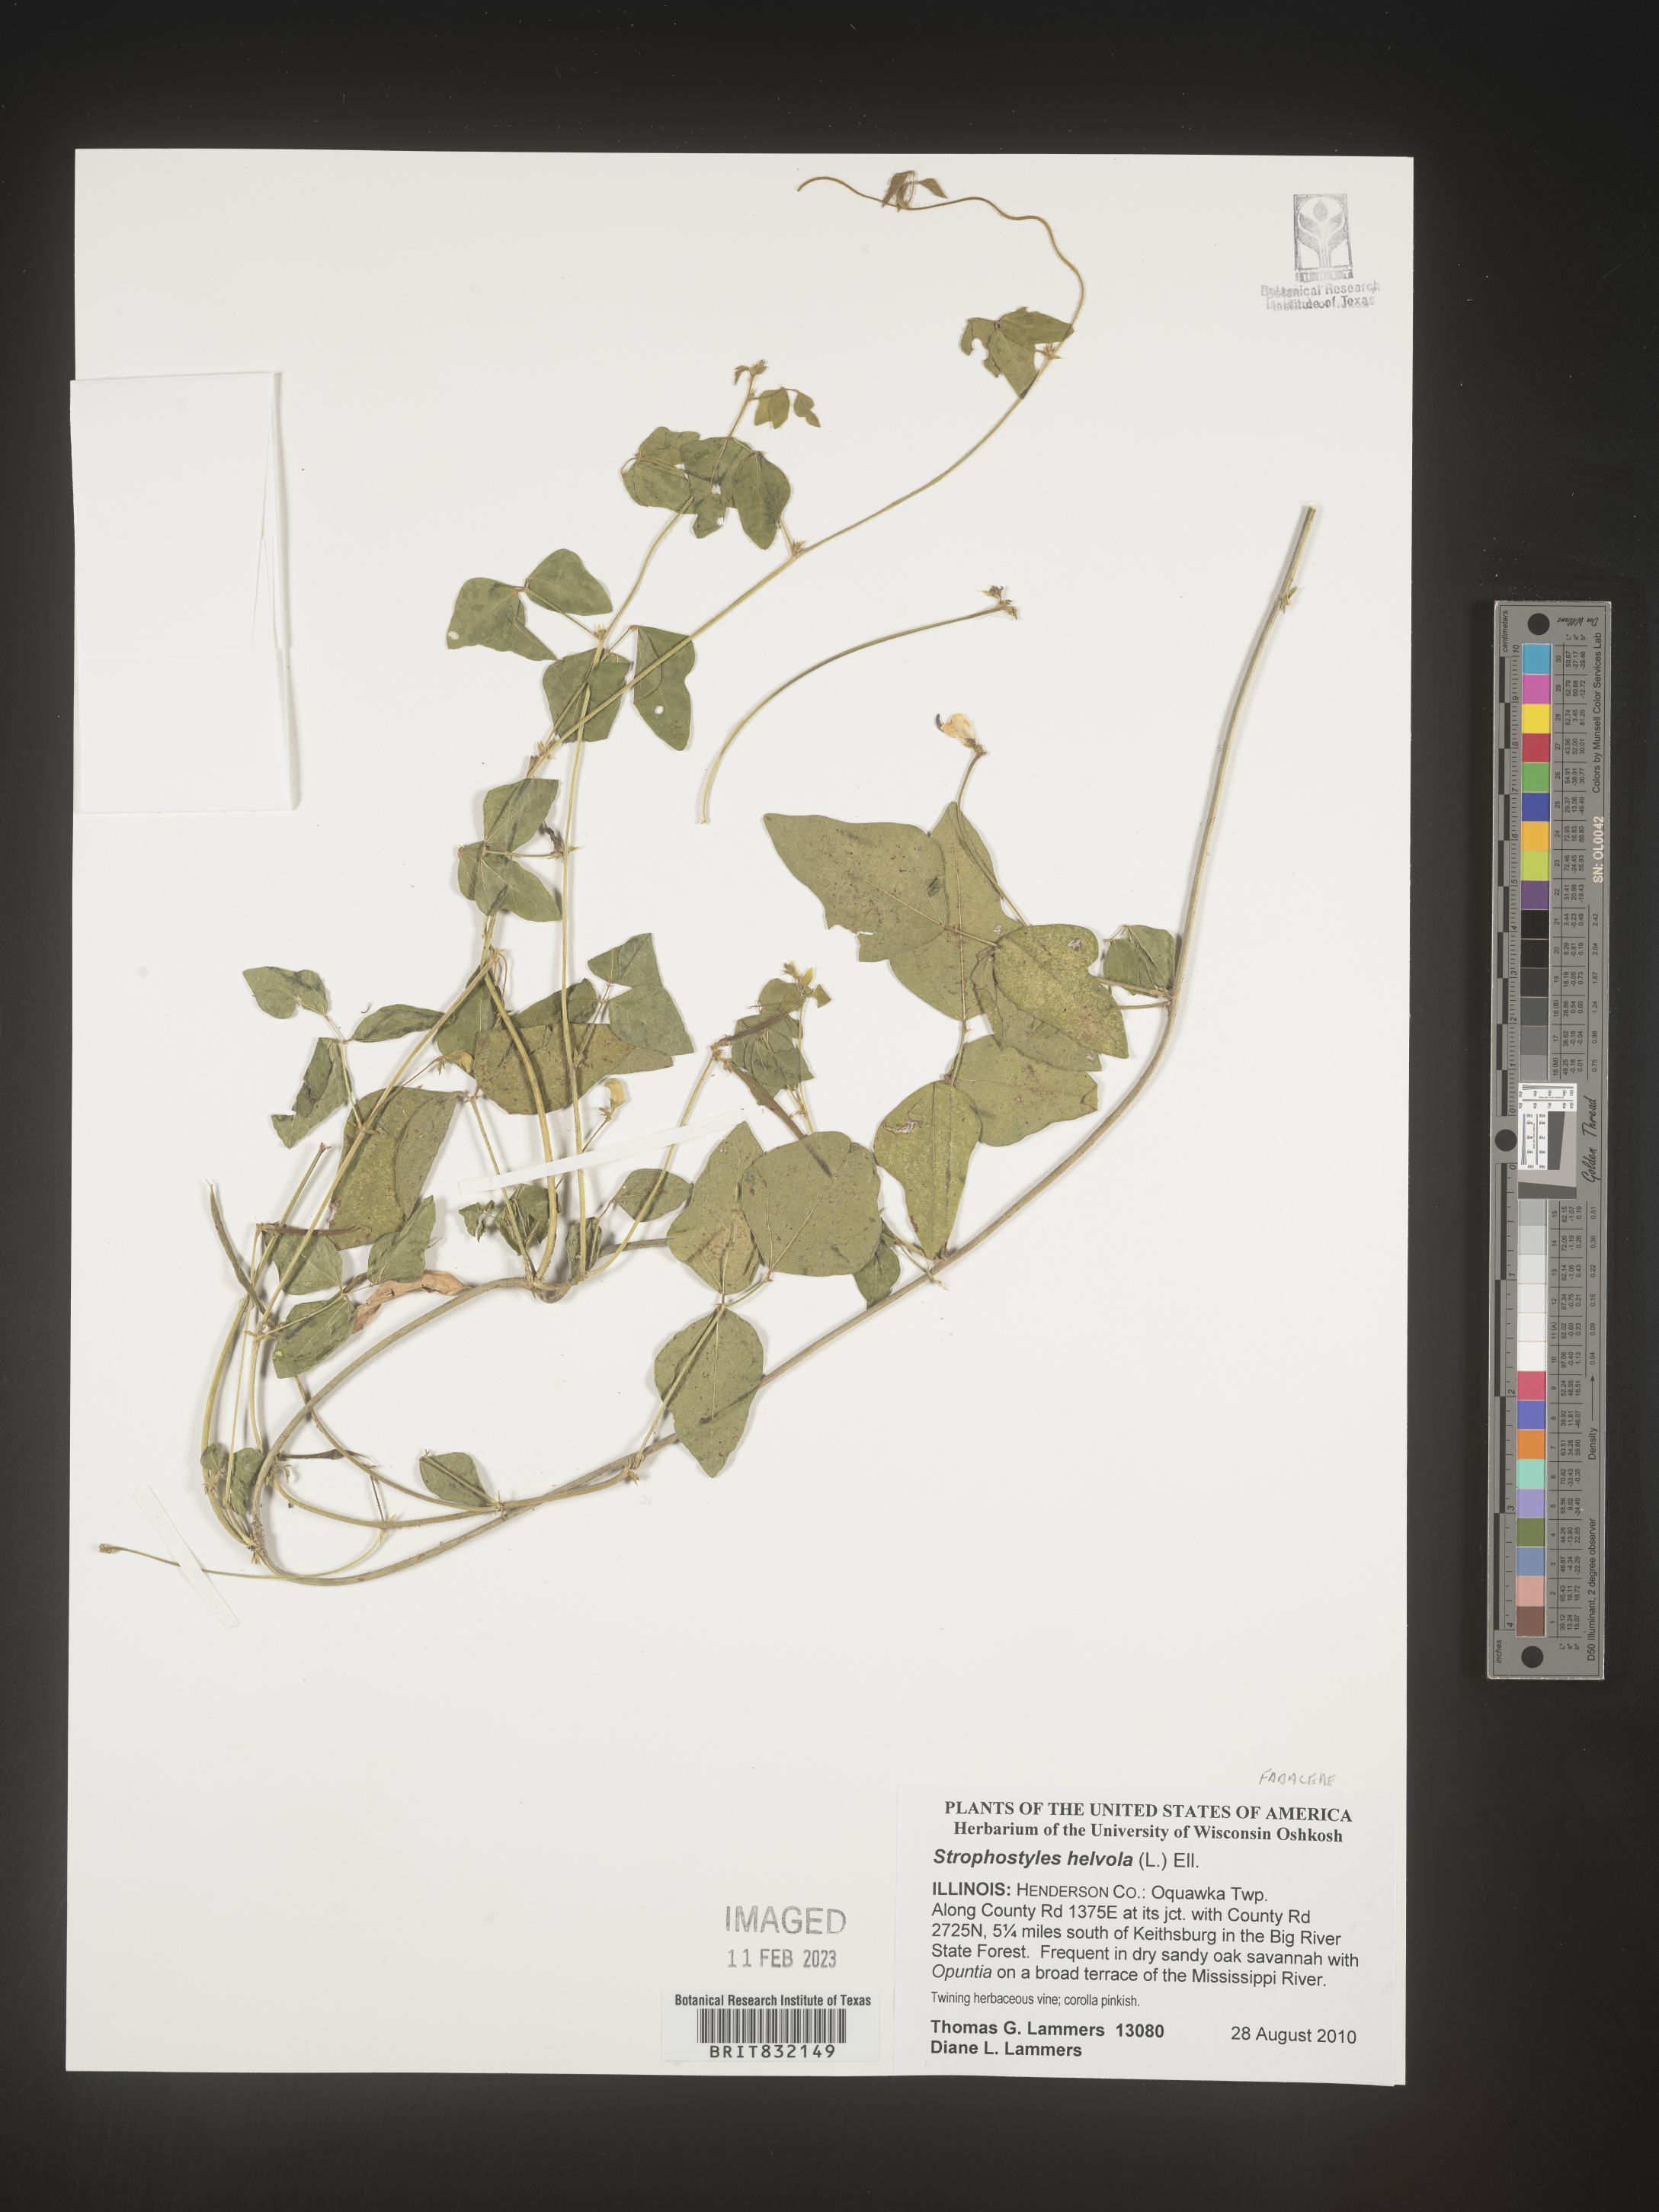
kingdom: Plantae
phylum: Tracheophyta
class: Magnoliopsida
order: Fabales
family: Fabaceae
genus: Strophostyles
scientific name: Strophostyles helvola
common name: Trailing wild bean
